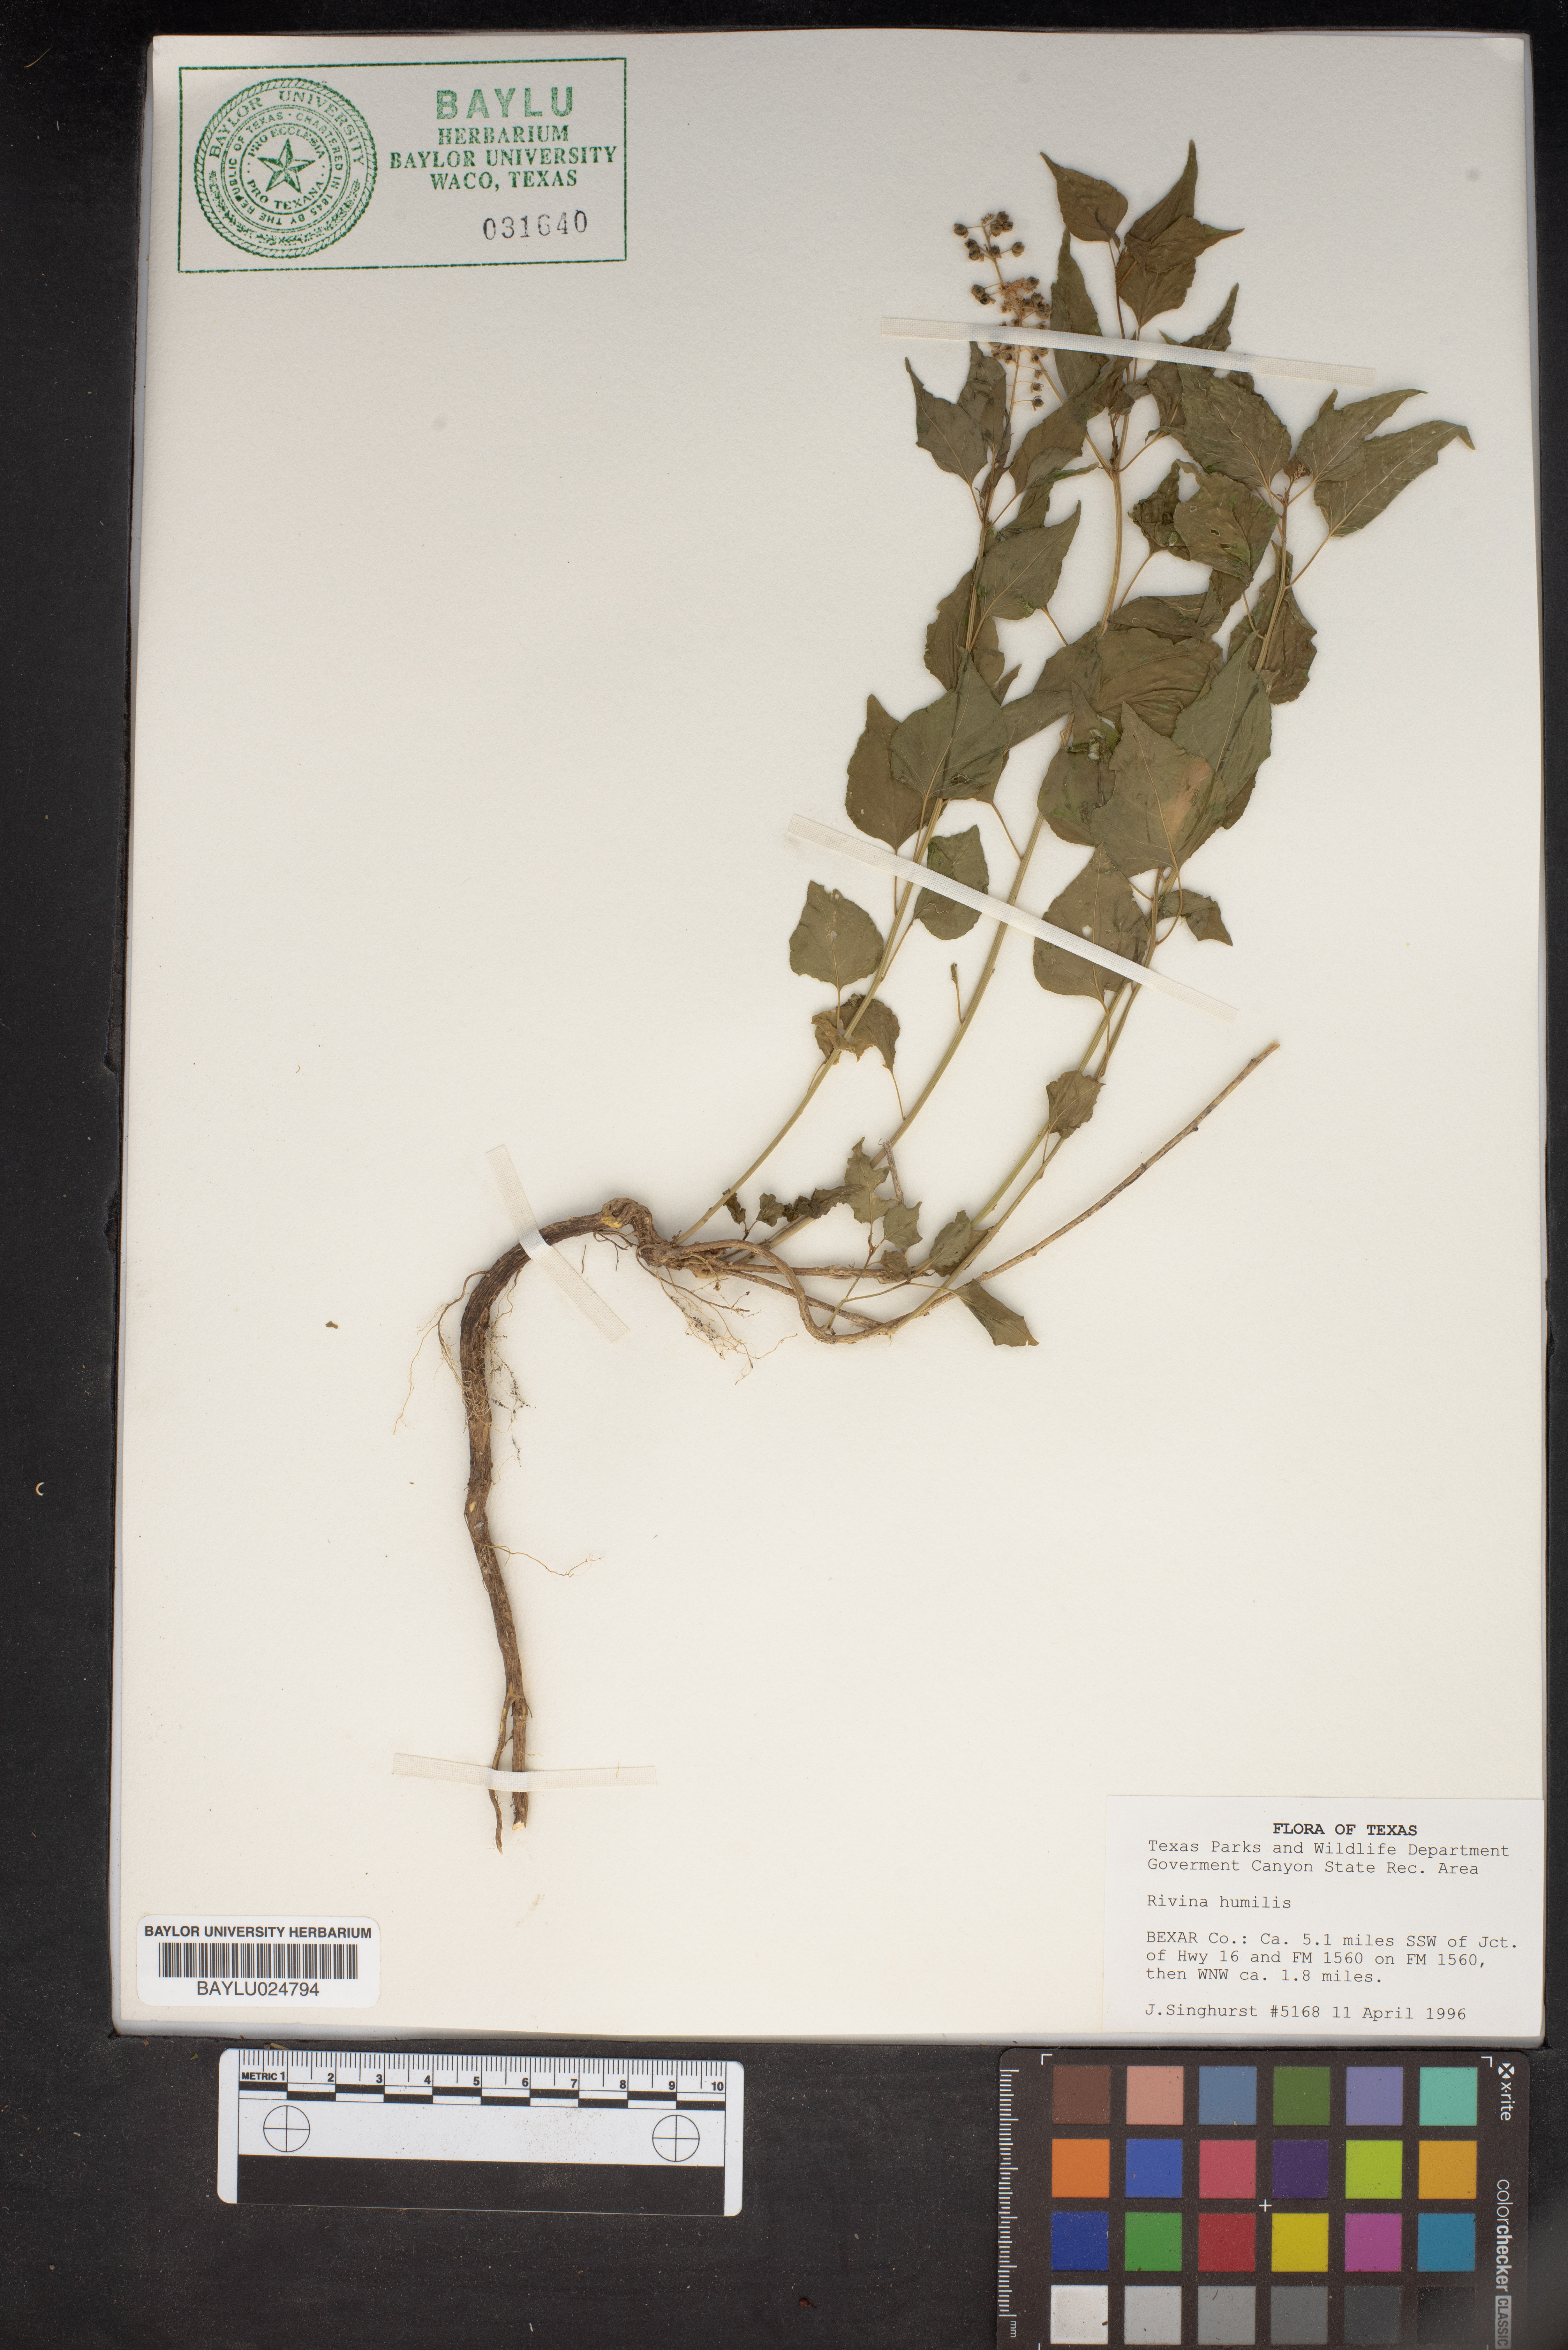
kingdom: Plantae
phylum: Tracheophyta
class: Magnoliopsida
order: Caryophyllales
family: Phytolaccaceae
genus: Rivina
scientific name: Rivina humilis
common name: Rougeplant
